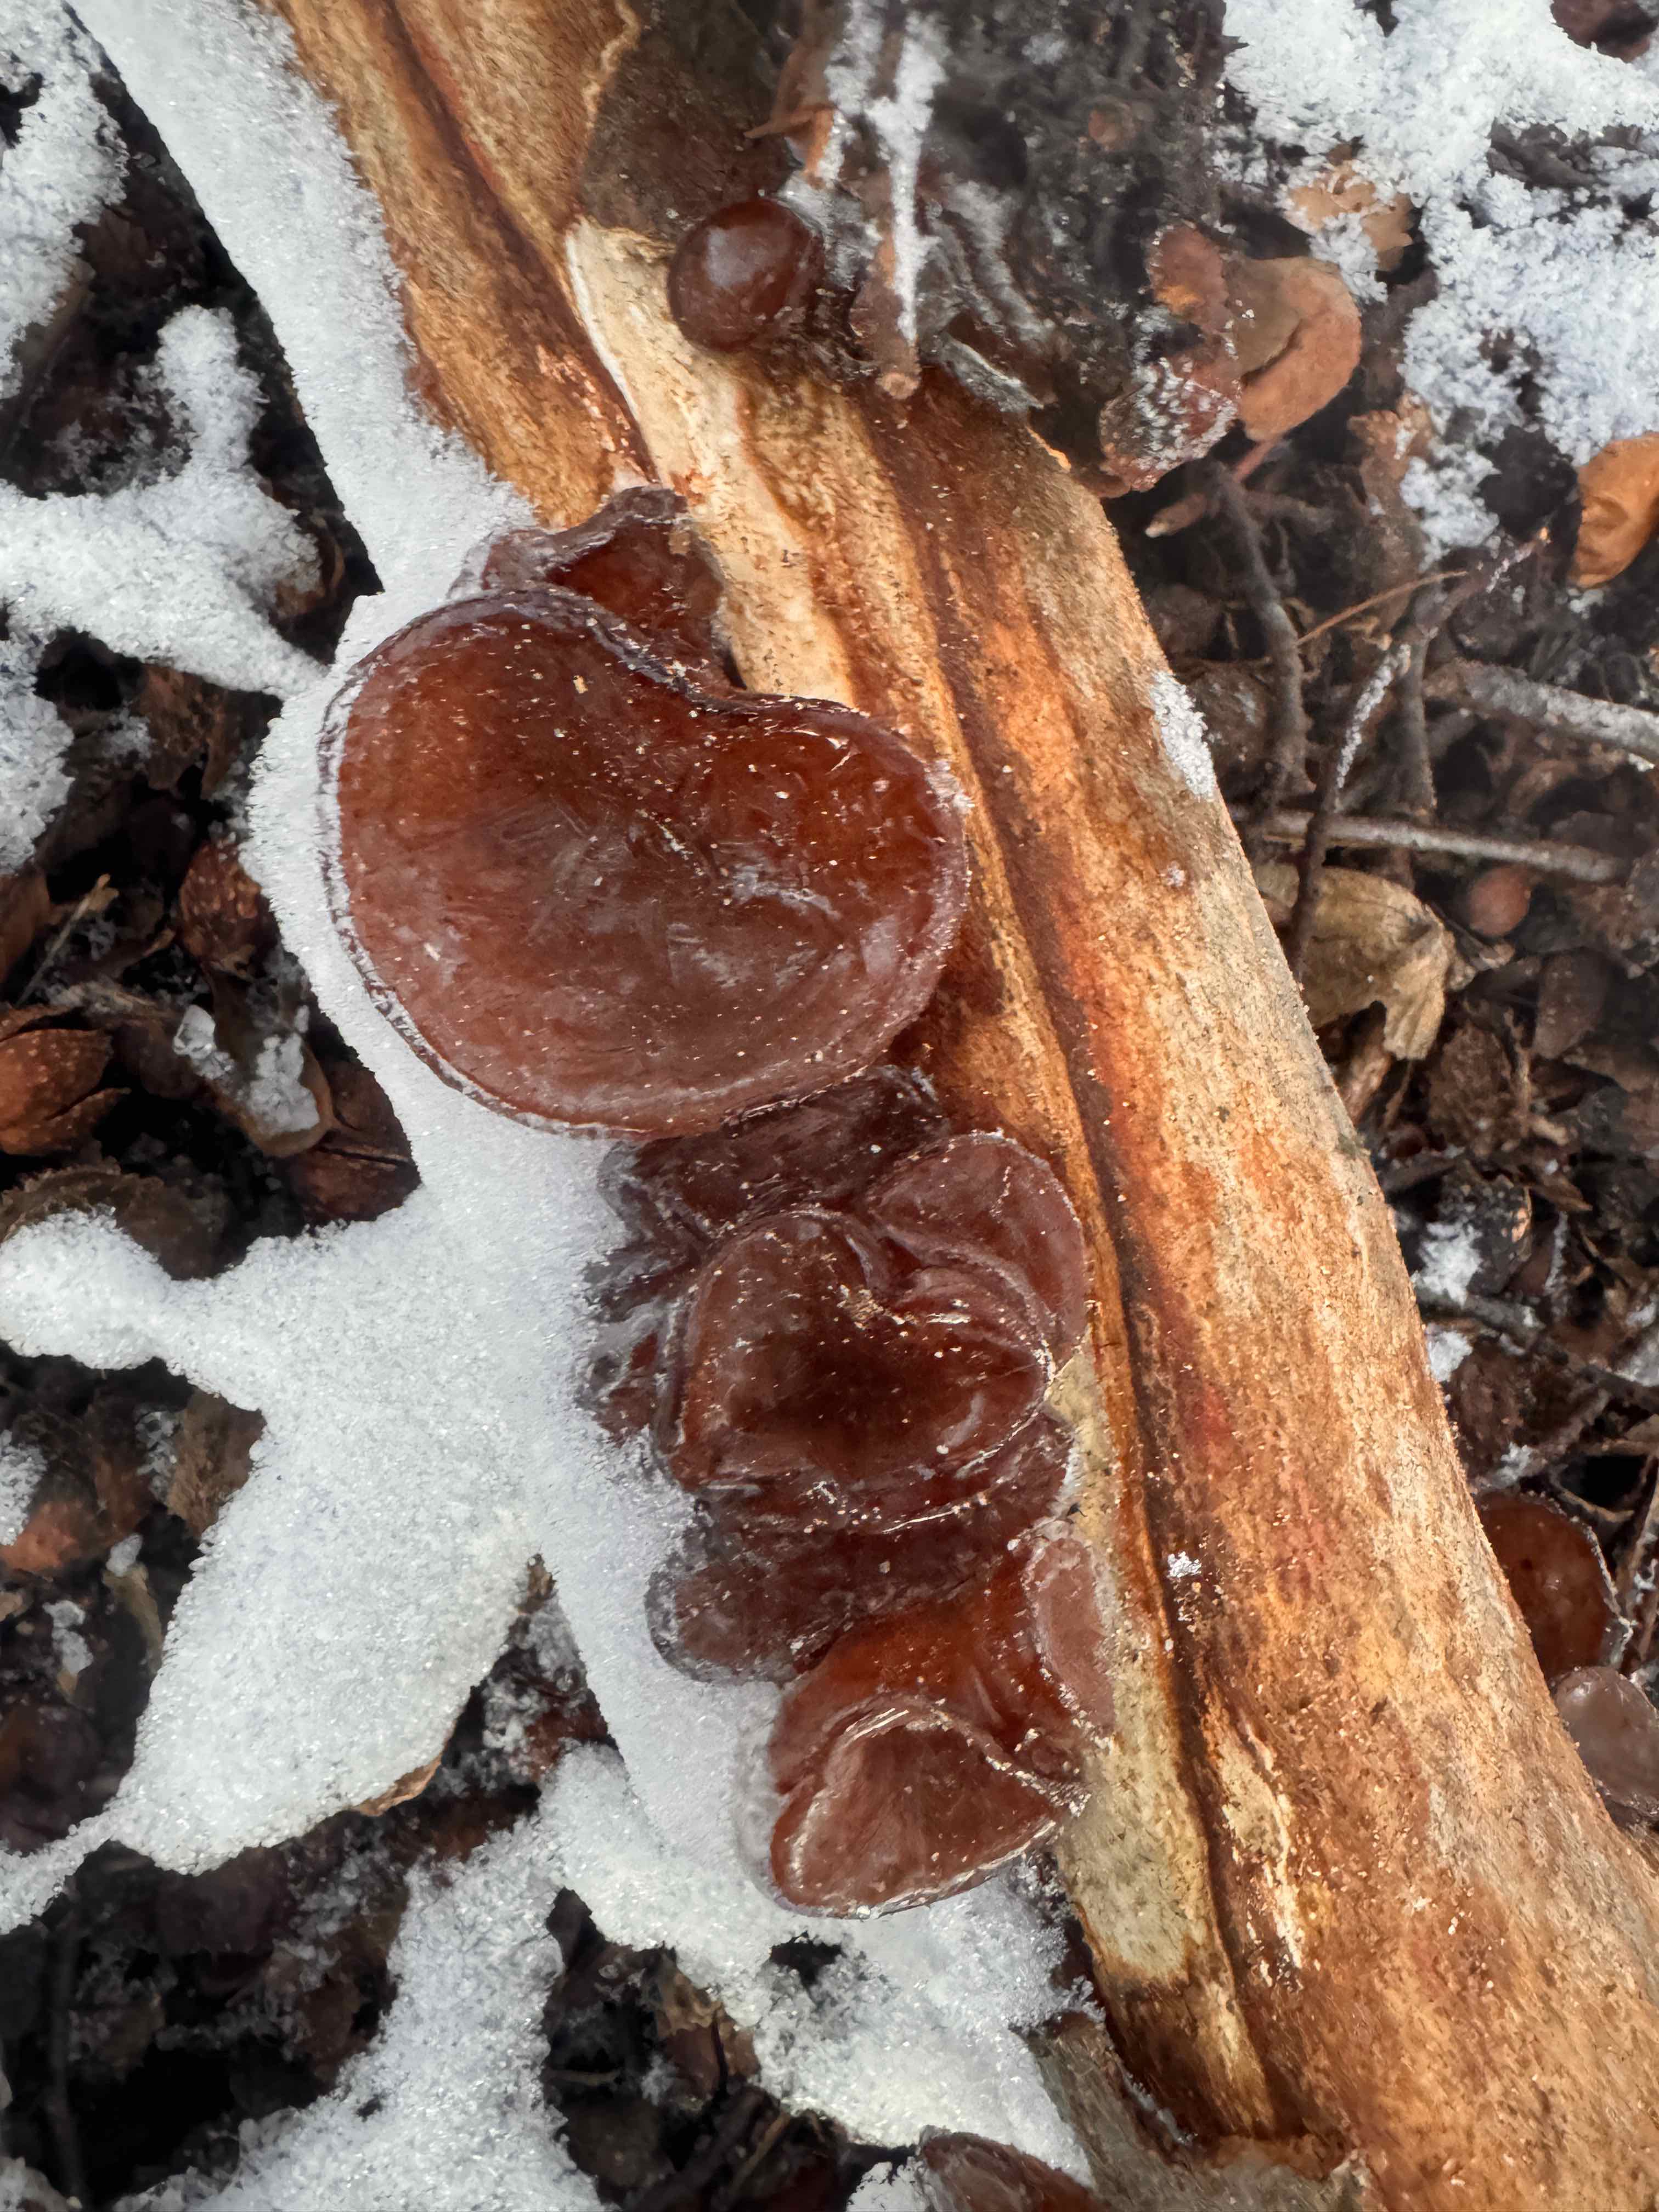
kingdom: Fungi
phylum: Basidiomycota
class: Agaricomycetes
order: Auriculariales
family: Auriculariaceae
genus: Auricularia
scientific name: Auricularia auricula-judae
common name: almindelig judasøre
